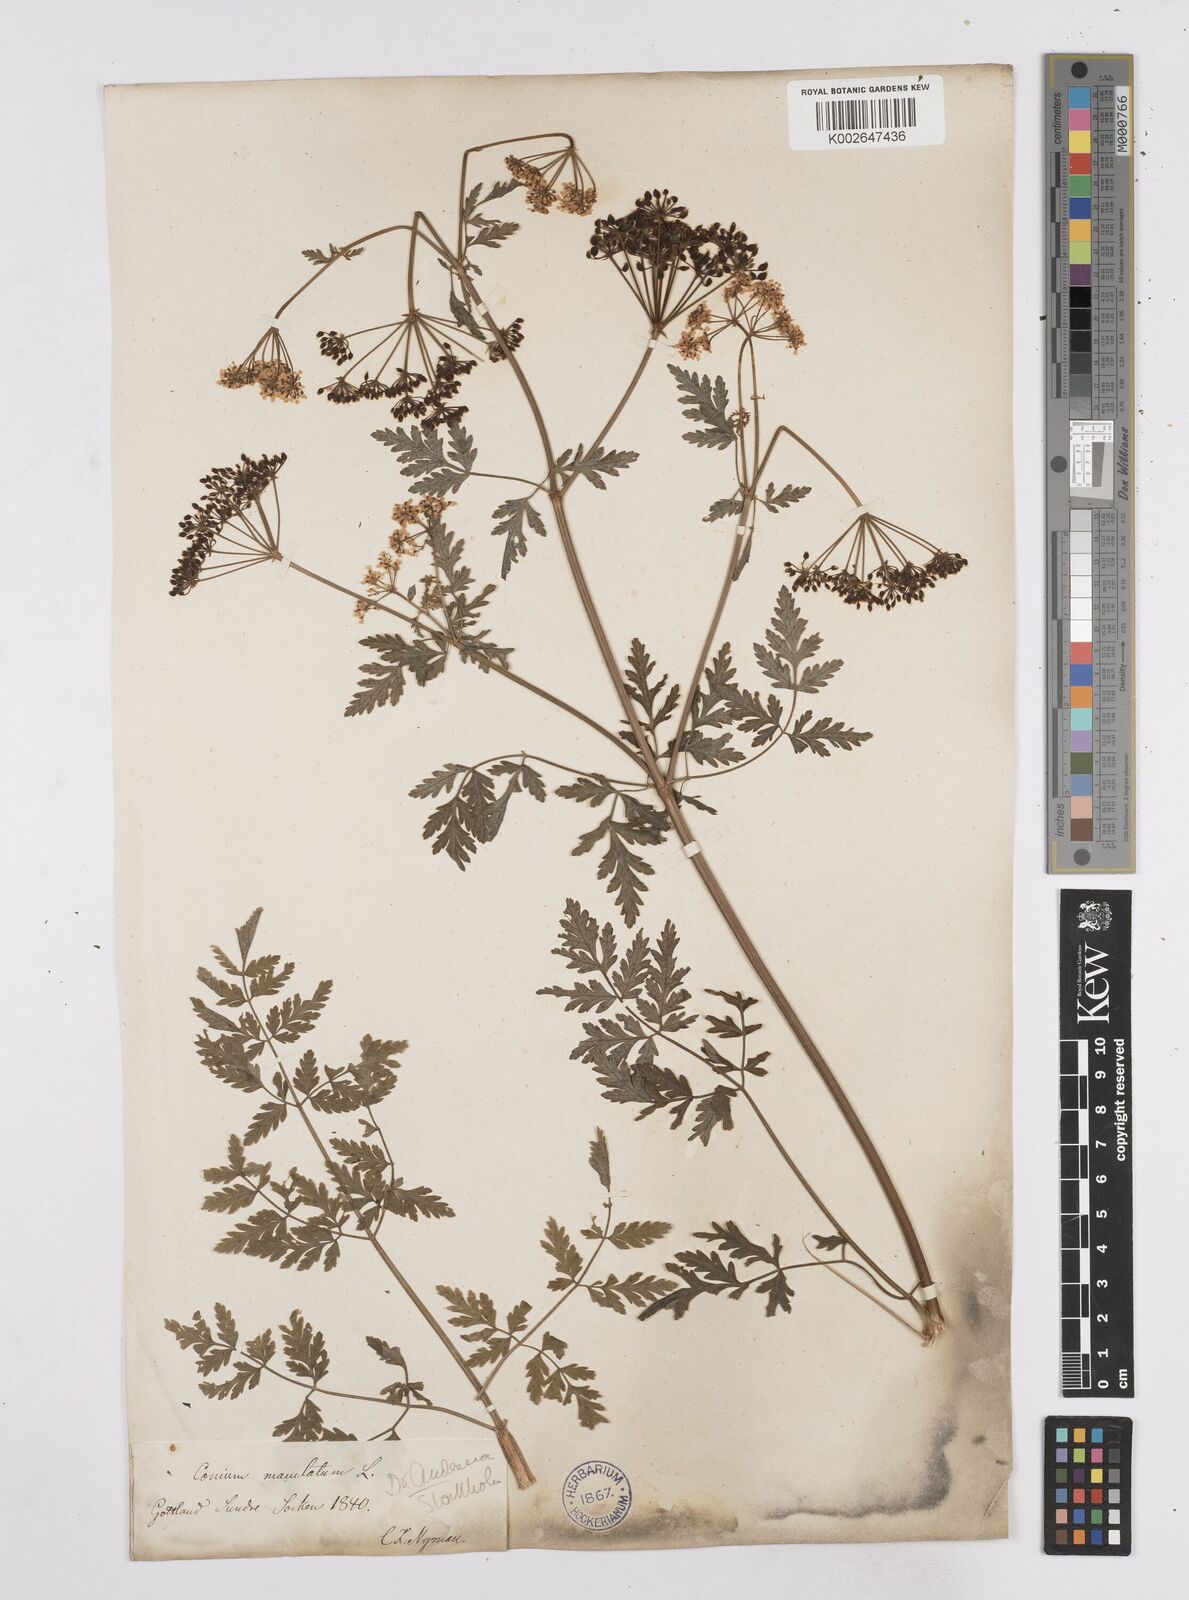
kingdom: Plantae
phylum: Tracheophyta
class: Magnoliopsida
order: Apiales
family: Apiaceae
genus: Conium
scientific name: Conium maculatum
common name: Hemlock
